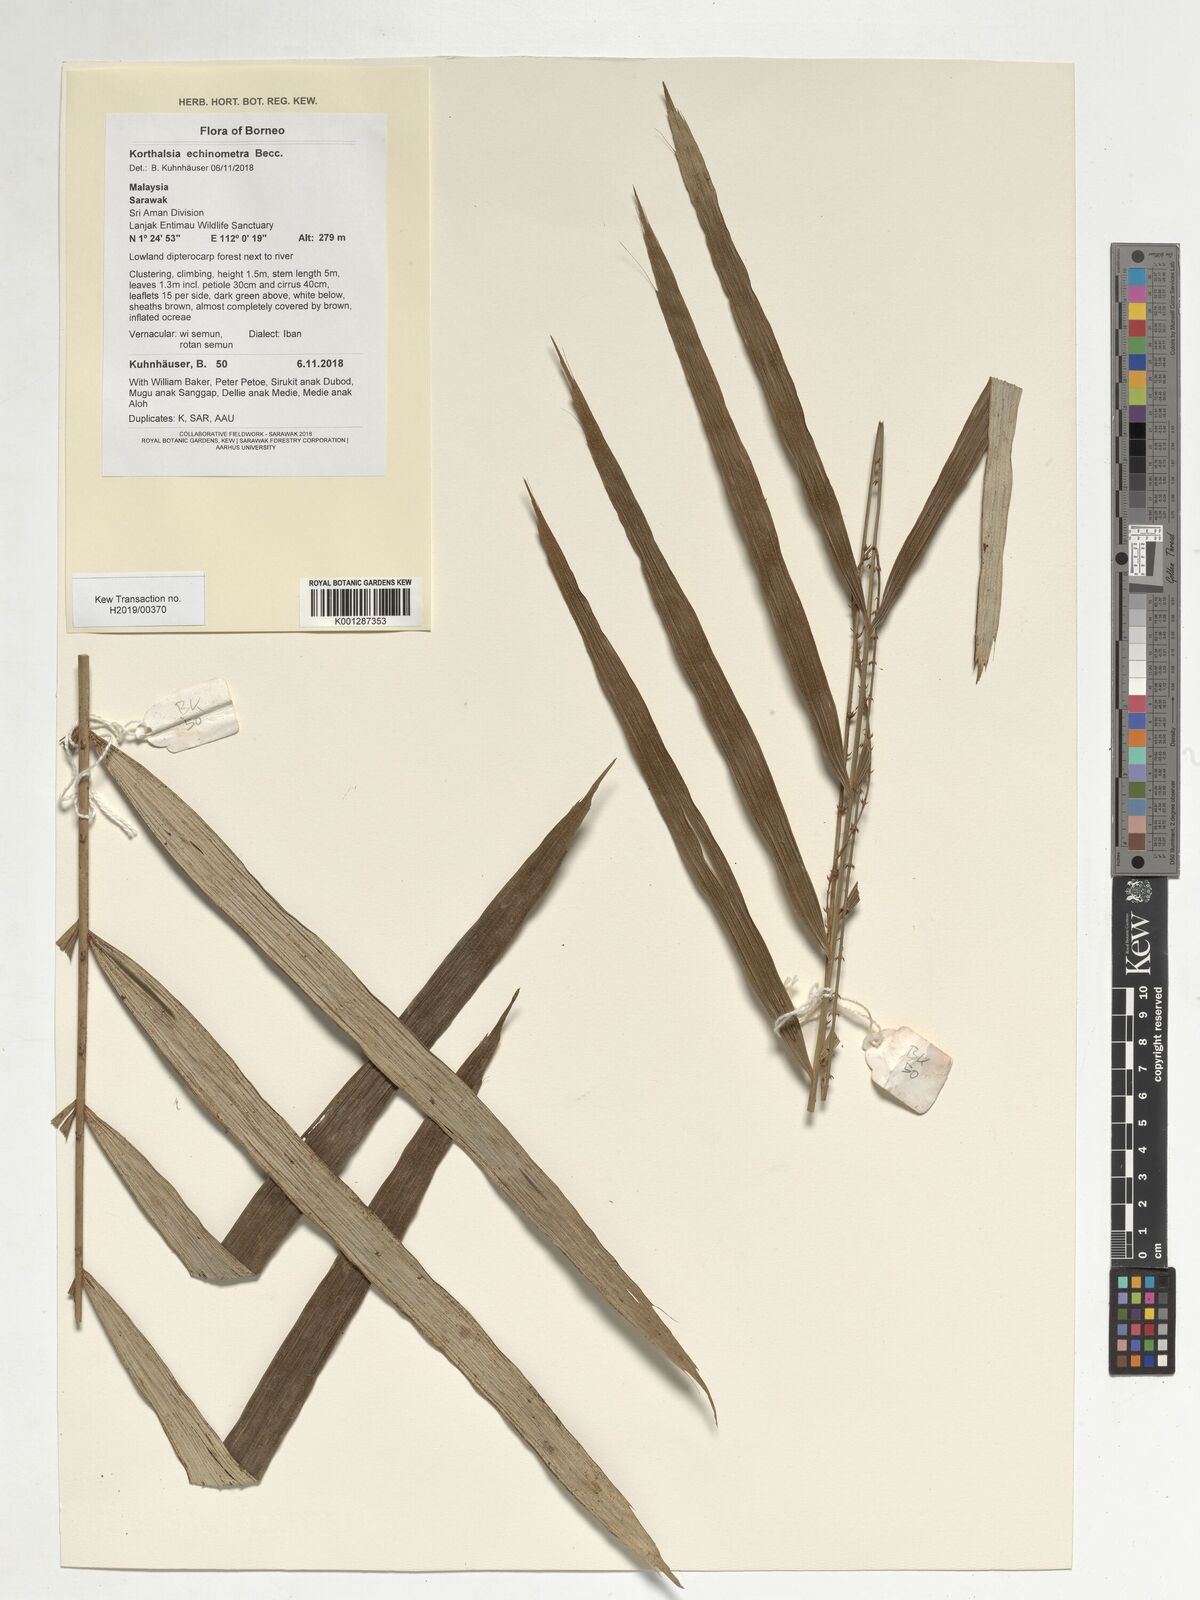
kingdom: Plantae
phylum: Tracheophyta
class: Liliopsida
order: Arecales
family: Arecaceae
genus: Korthalsia
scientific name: Korthalsia echinometra
